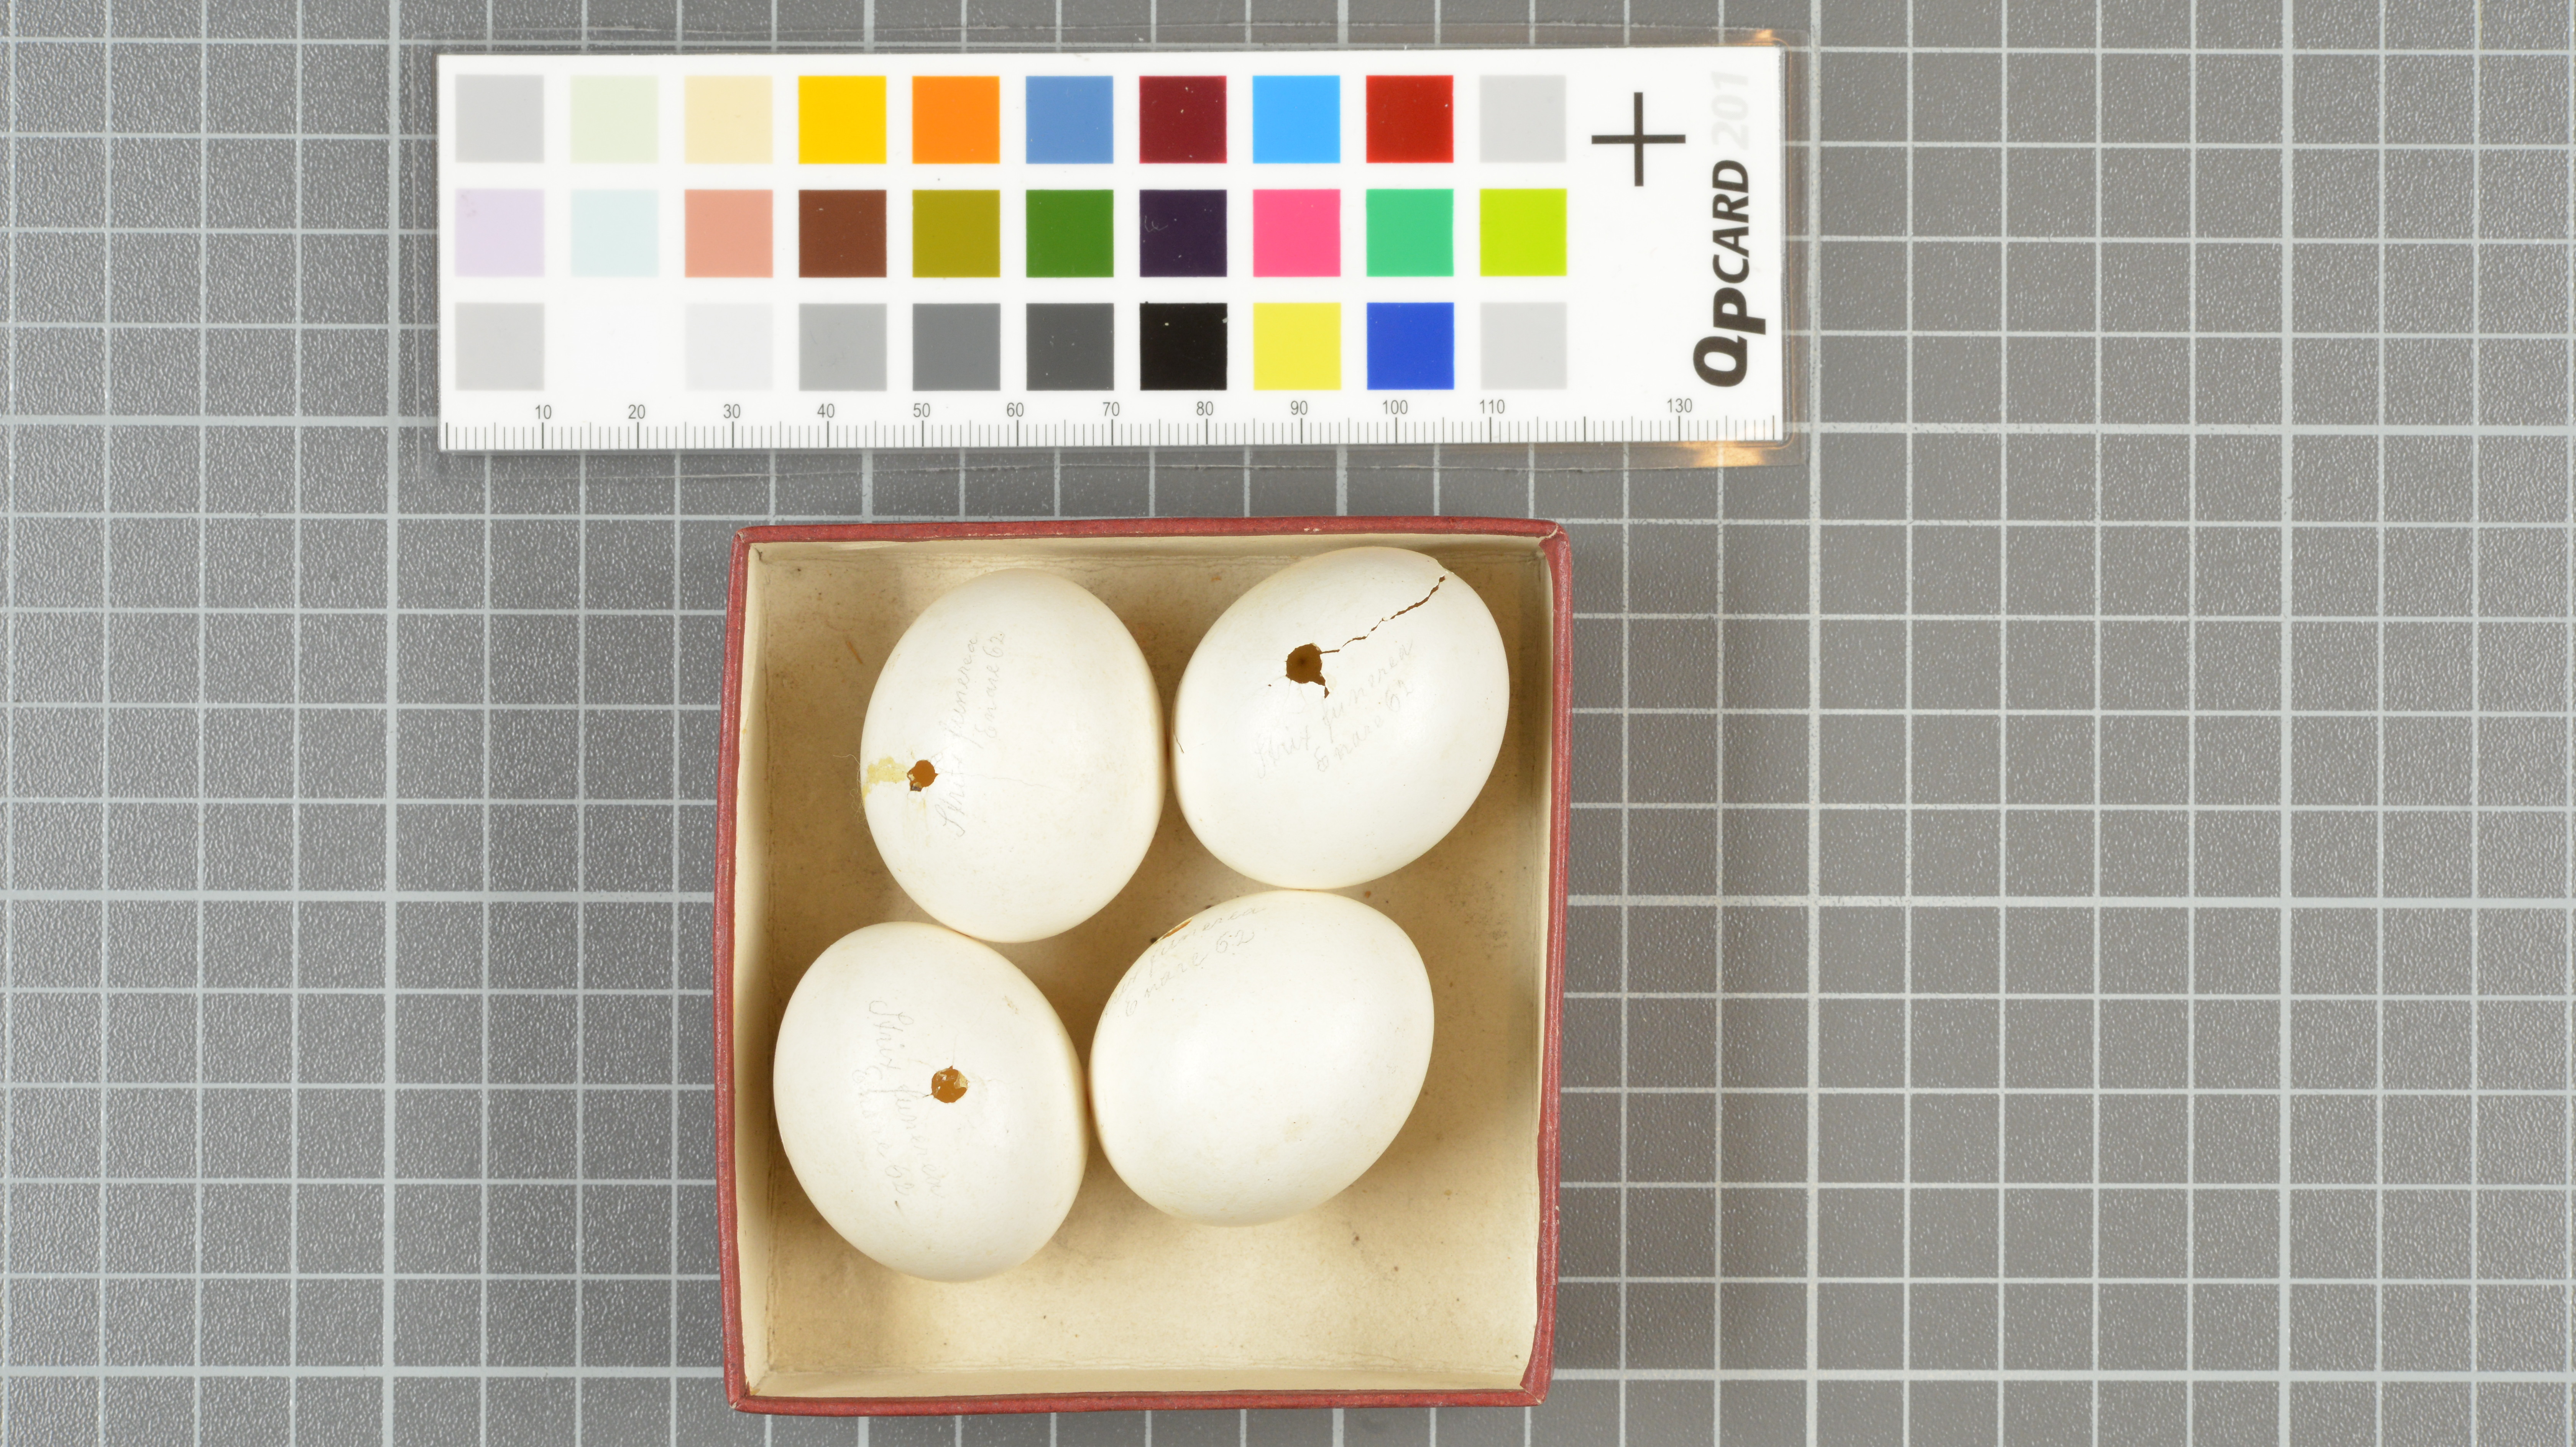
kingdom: Animalia
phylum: Chordata
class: Aves
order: Strigiformes
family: Strigidae
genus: Aegolius
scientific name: Aegolius funereus
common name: Boreal owl
